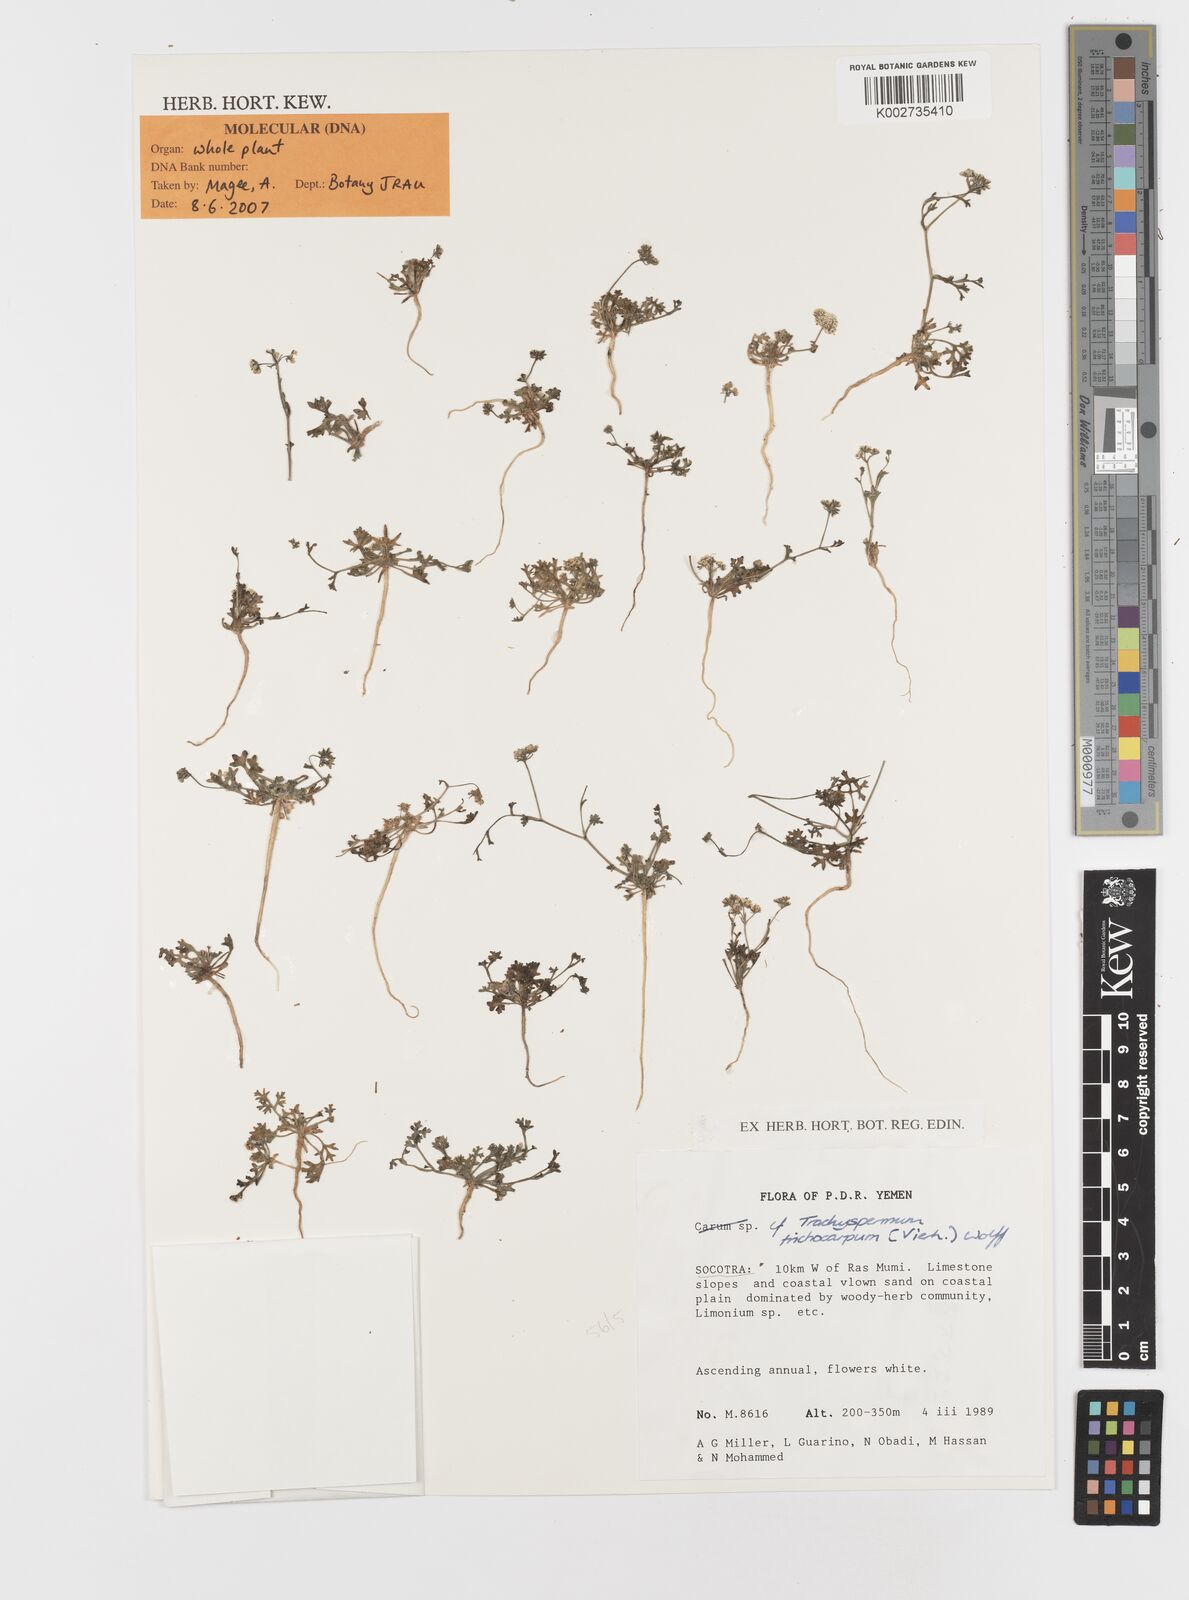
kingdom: Plantae
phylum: Tracheophyta
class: Magnoliopsida
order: Apiales
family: Apiaceae
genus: Trachyspermum
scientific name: Trachyspermum pimpinelloides
